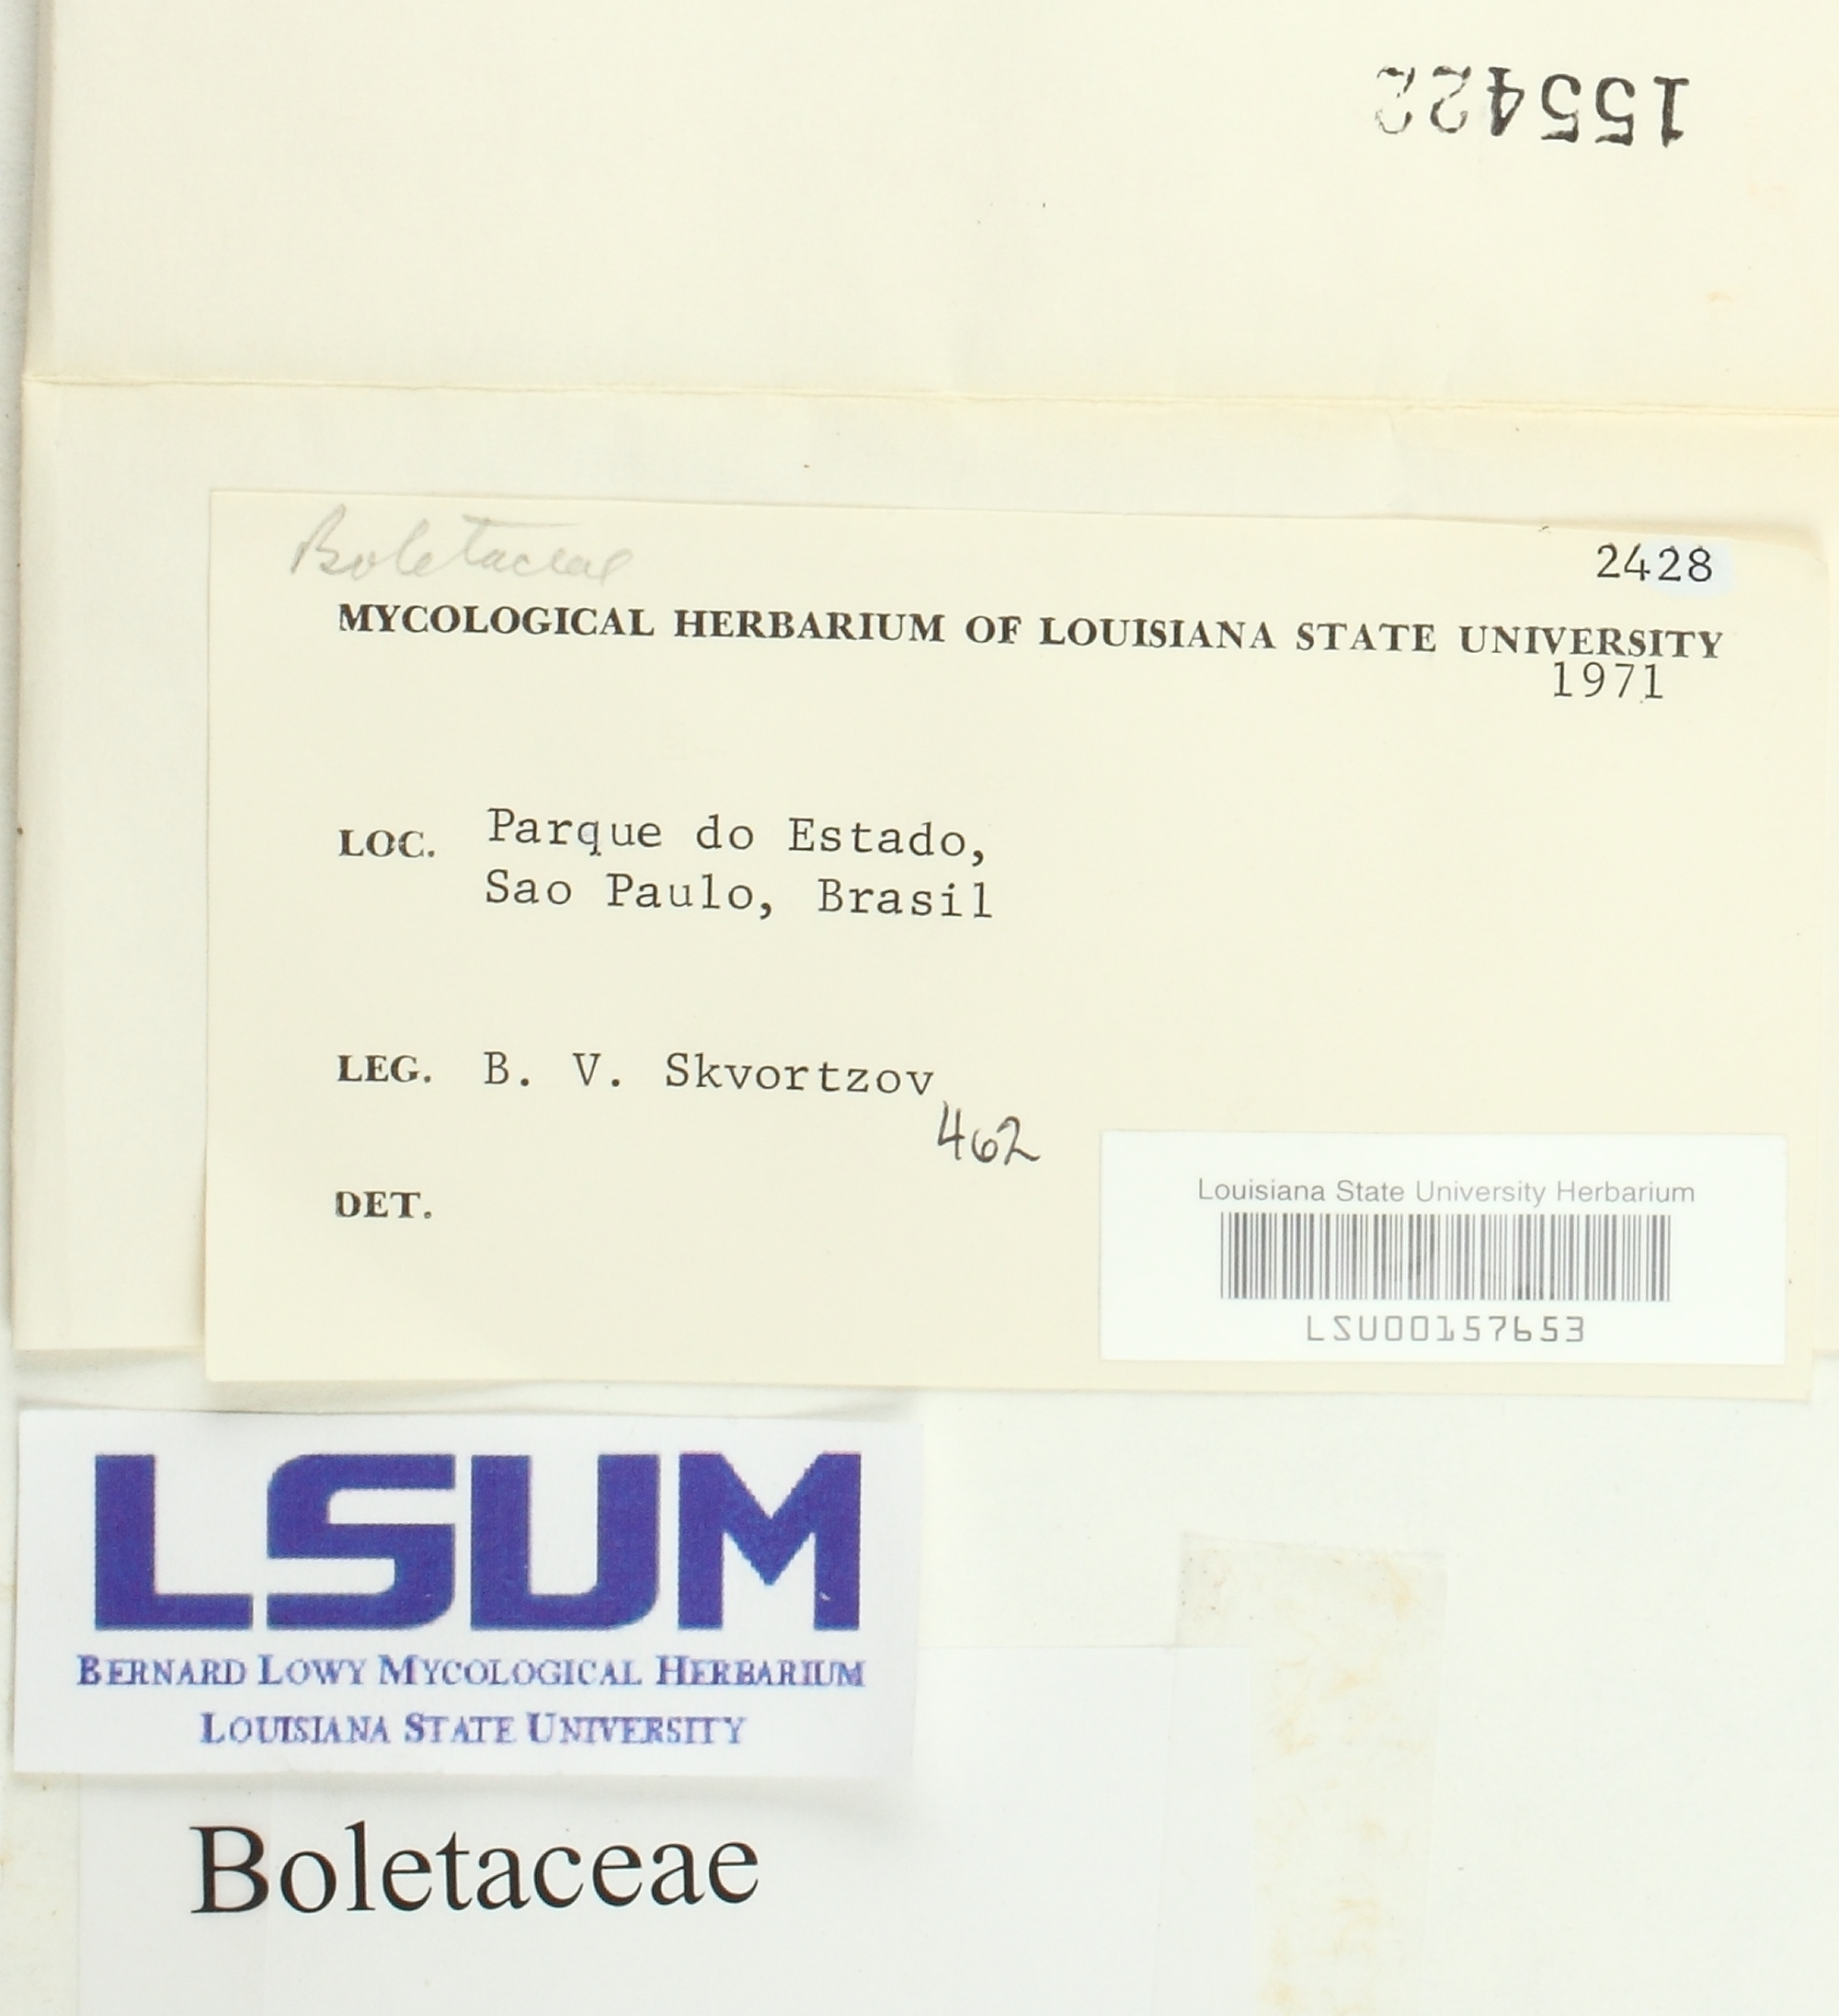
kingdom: Fungi
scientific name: Fungi
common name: Fungi
